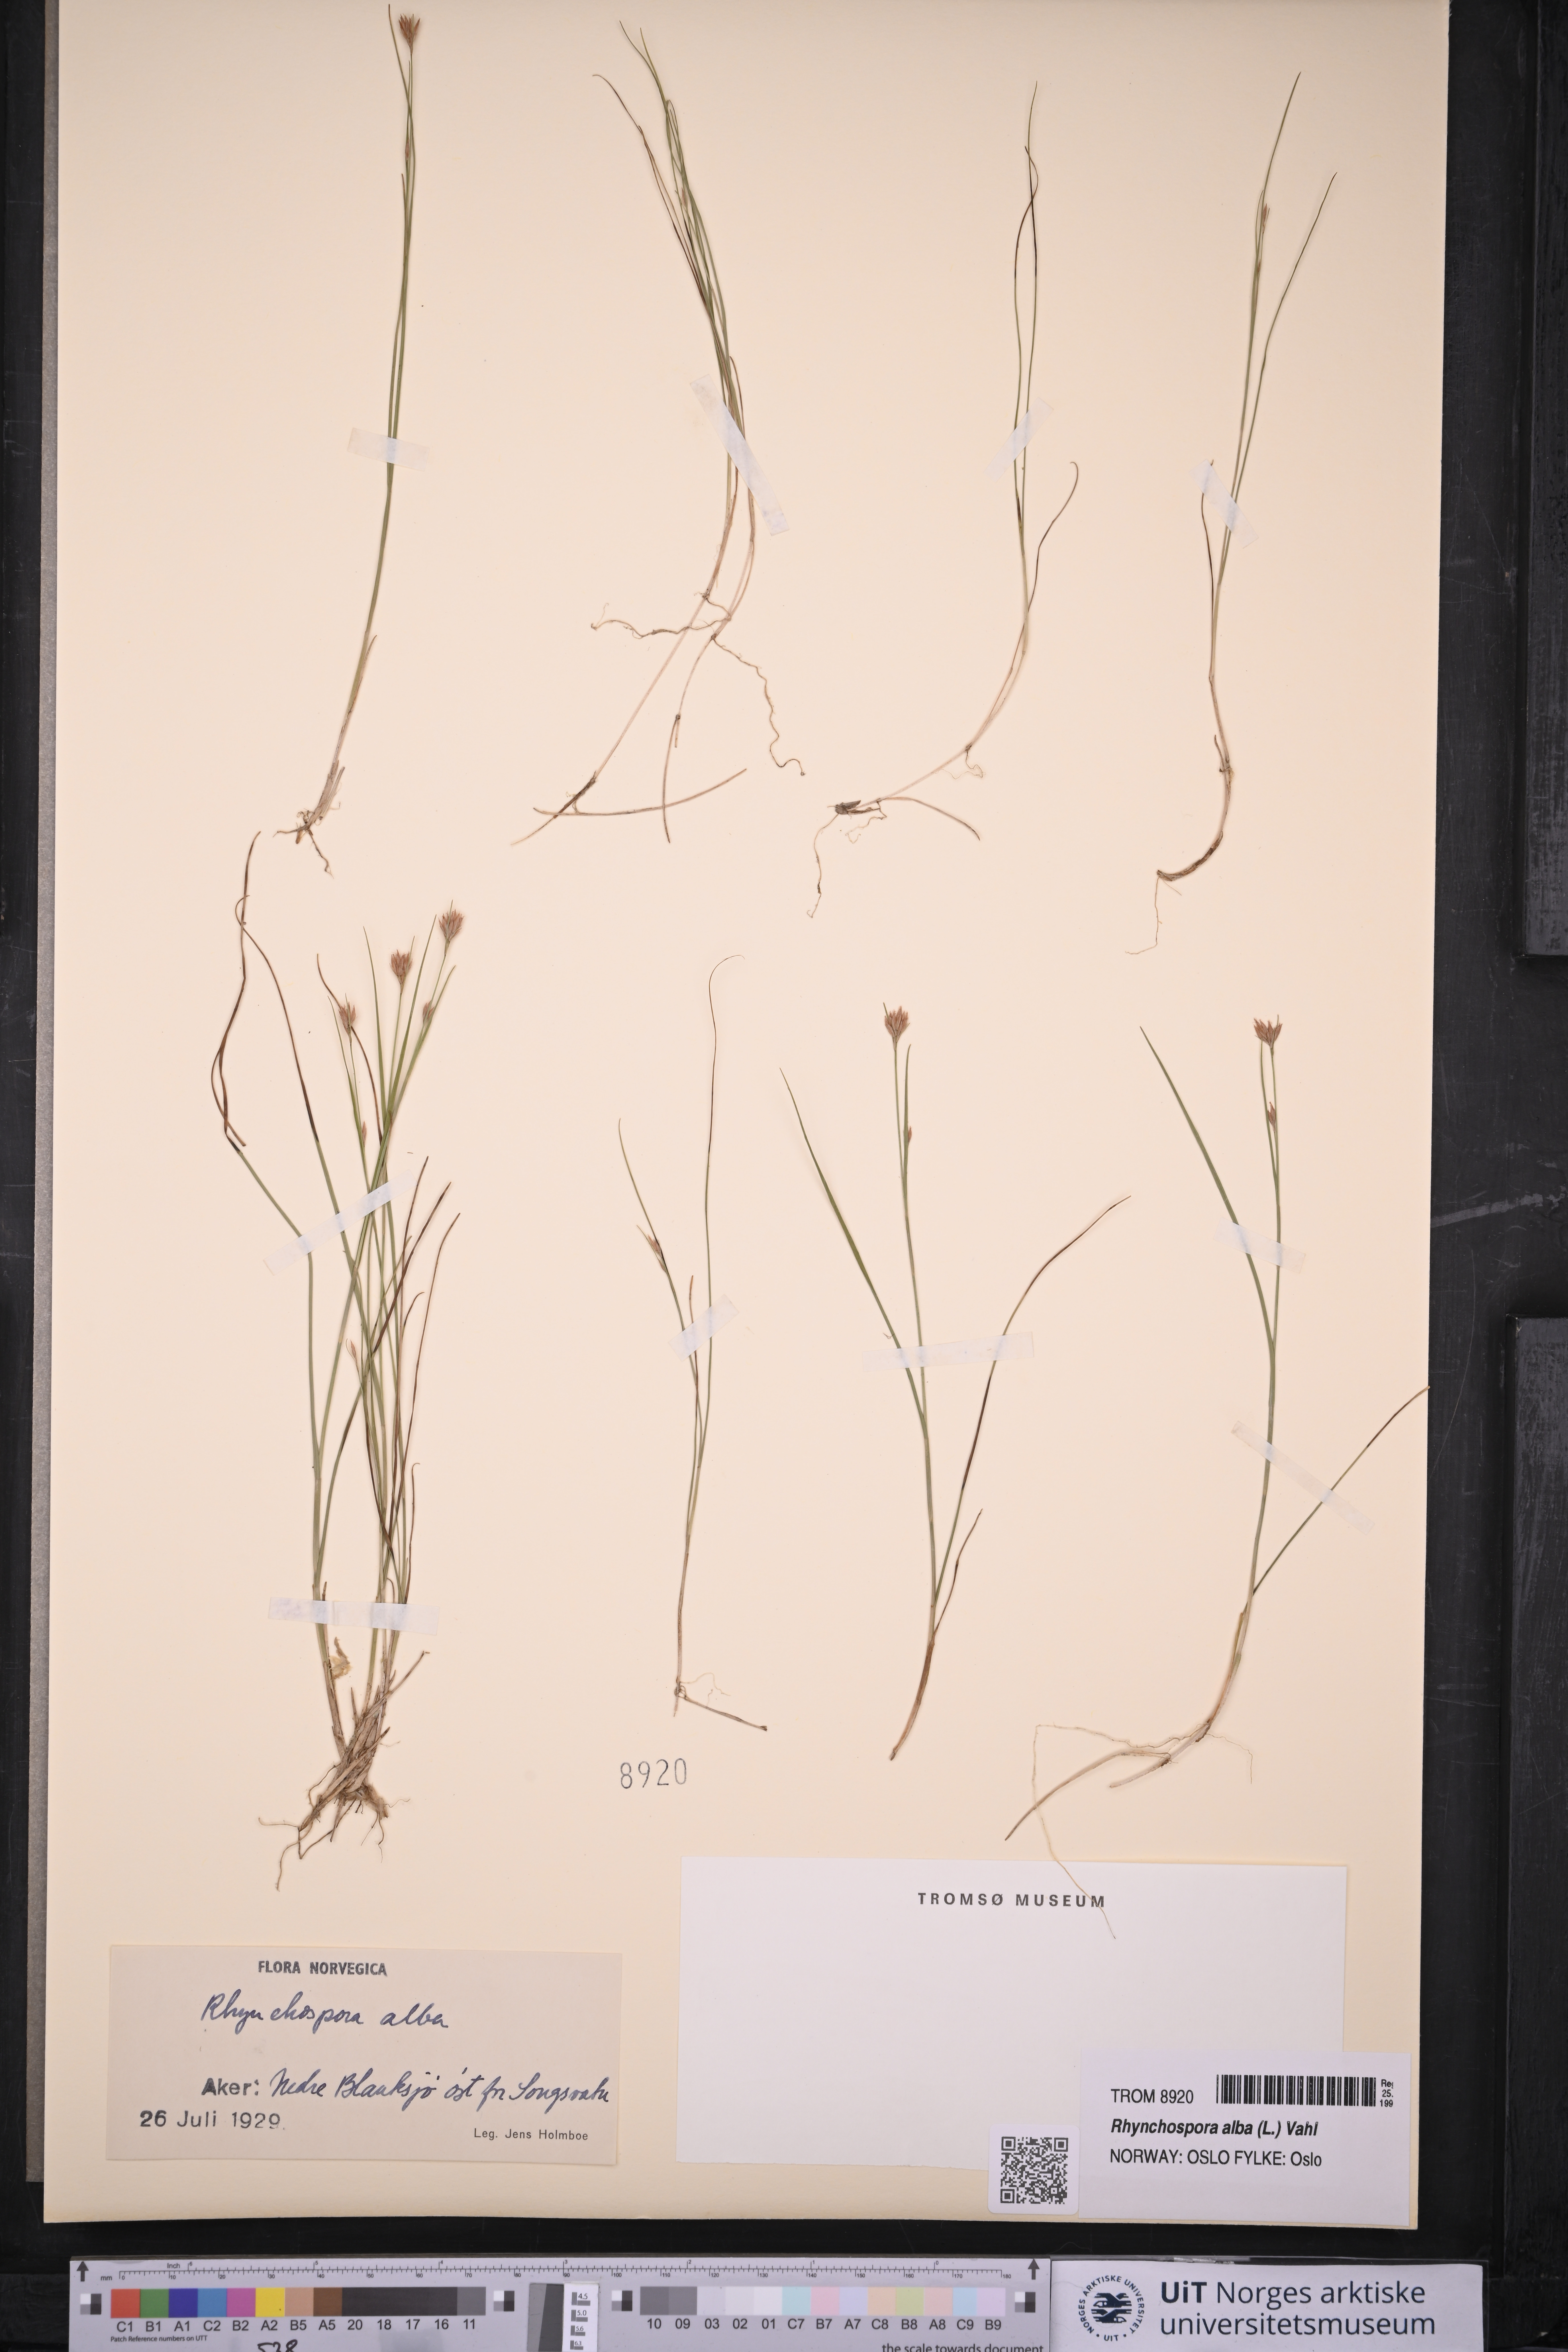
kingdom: Plantae
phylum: Tracheophyta
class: Liliopsida
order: Poales
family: Cyperaceae
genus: Rhynchospora
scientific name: Rhynchospora alba
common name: White beak-sedge
